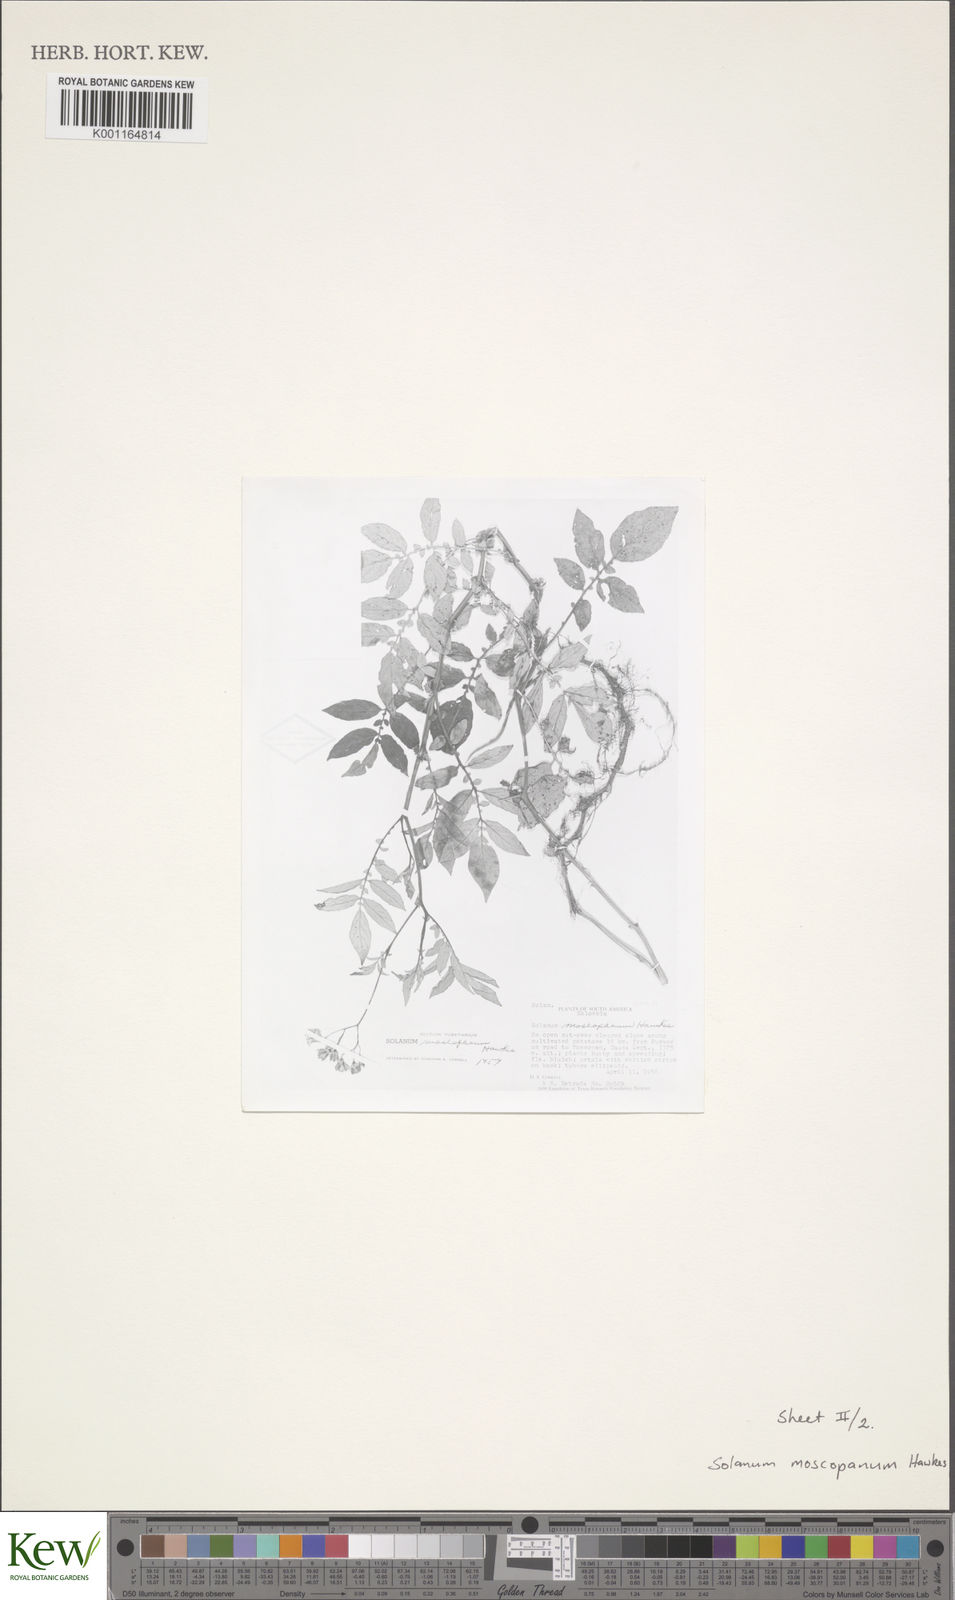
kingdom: Plantae
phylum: Tracheophyta
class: Magnoliopsida
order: Solanales
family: Solanaceae
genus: Solanum
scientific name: Solanum colombianum
